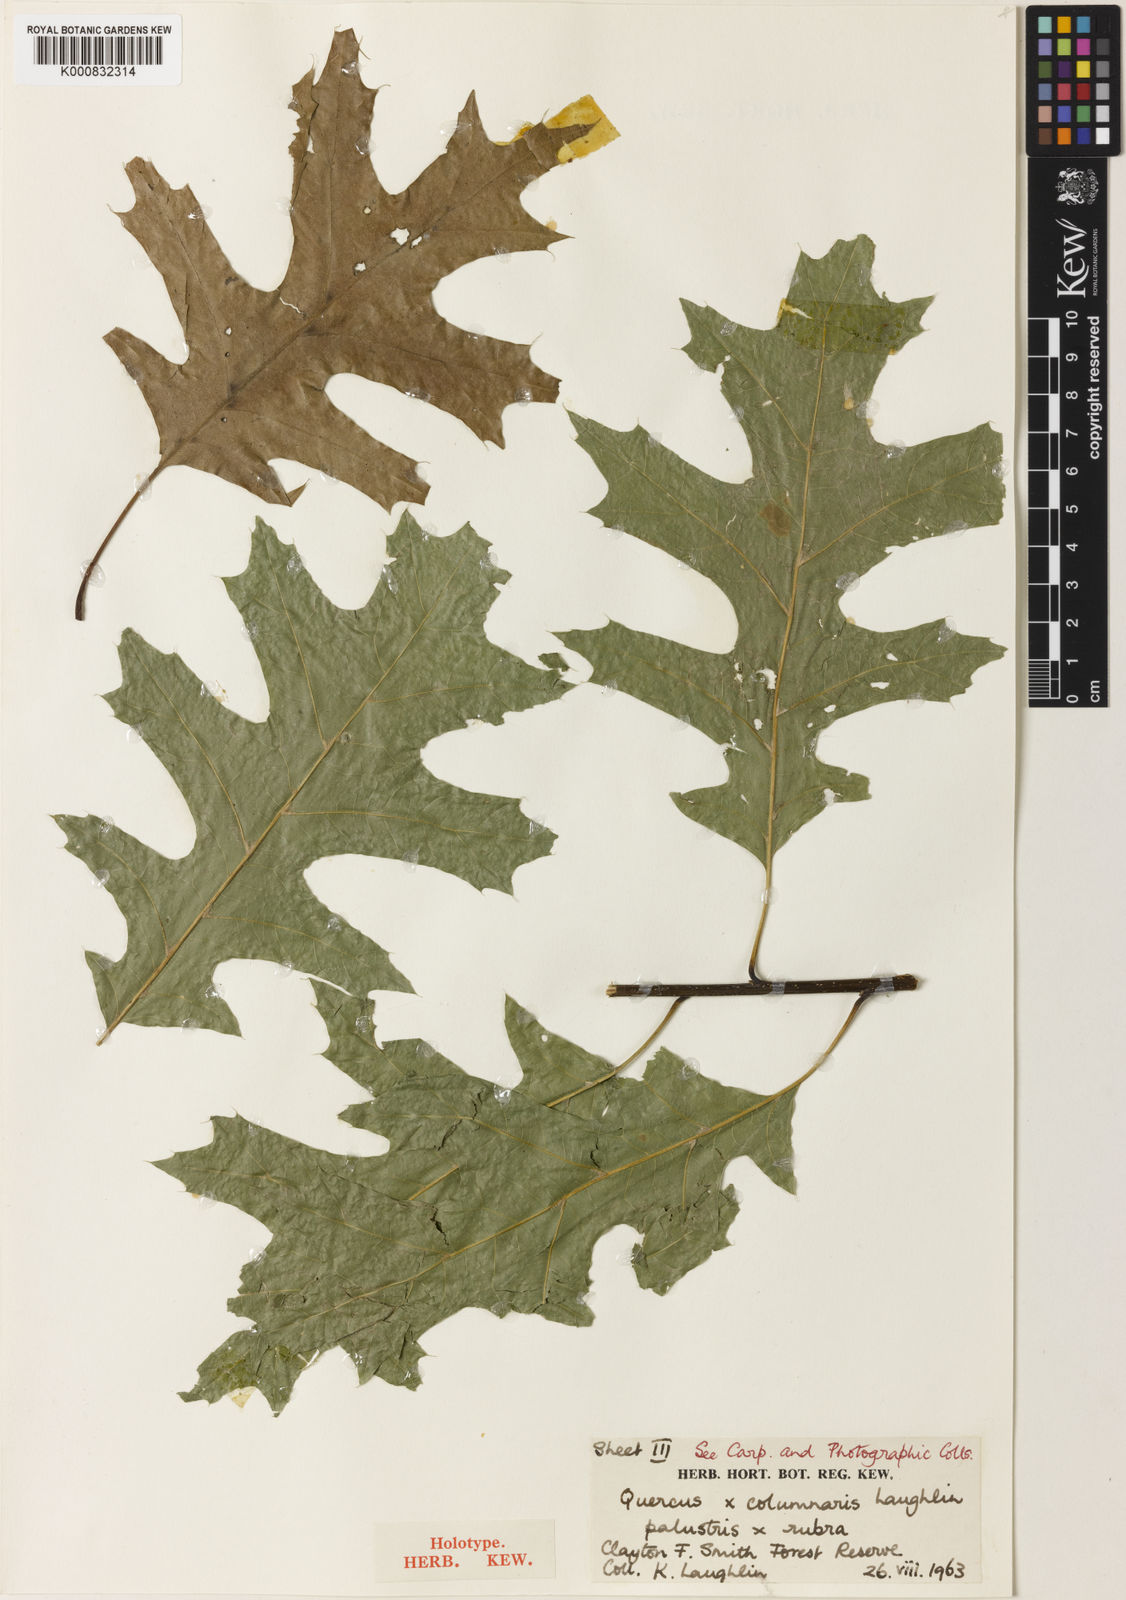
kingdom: Plantae
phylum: Tracheophyta
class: Magnoliopsida
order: Fagales
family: Fagaceae
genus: Quercus
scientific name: Quercus
